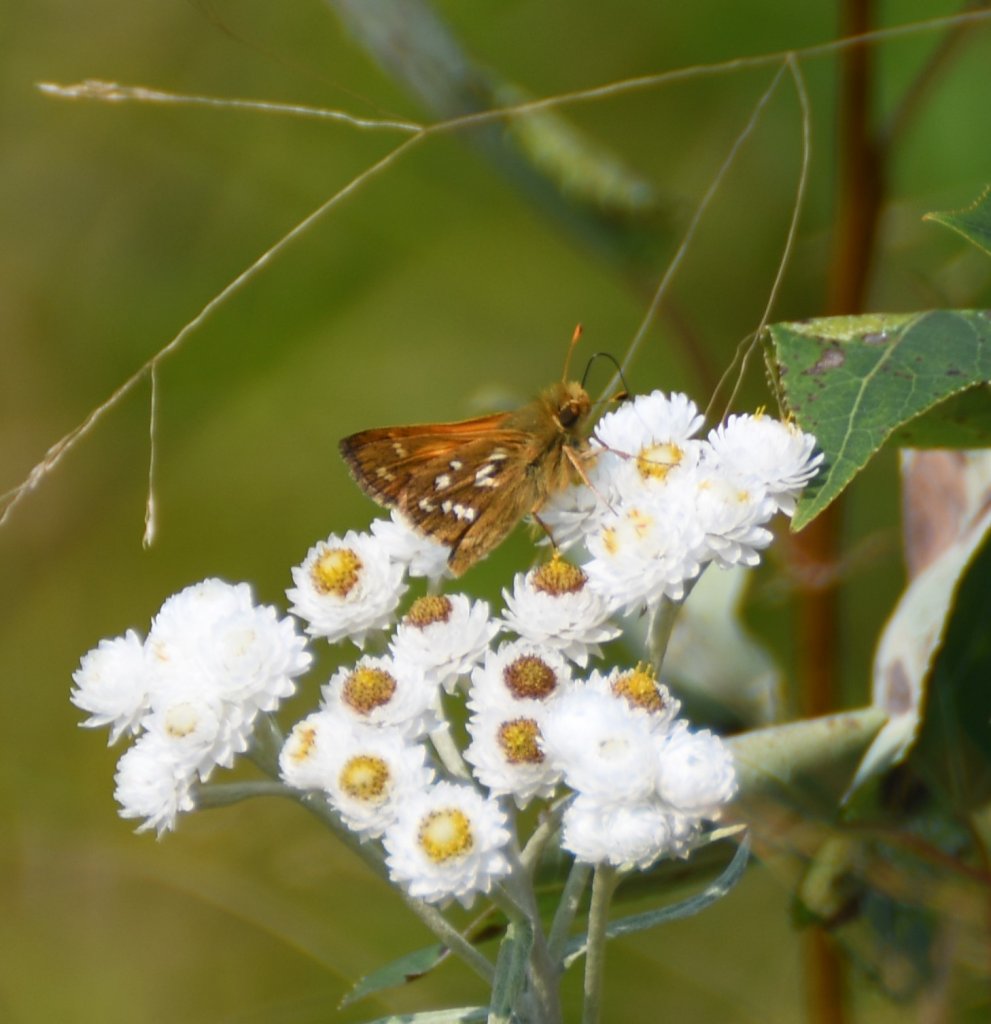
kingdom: Animalia
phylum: Arthropoda
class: Insecta
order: Lepidoptera
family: Hesperiidae
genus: Hesperia
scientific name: Hesperia comma
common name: Common Branded Skipper
